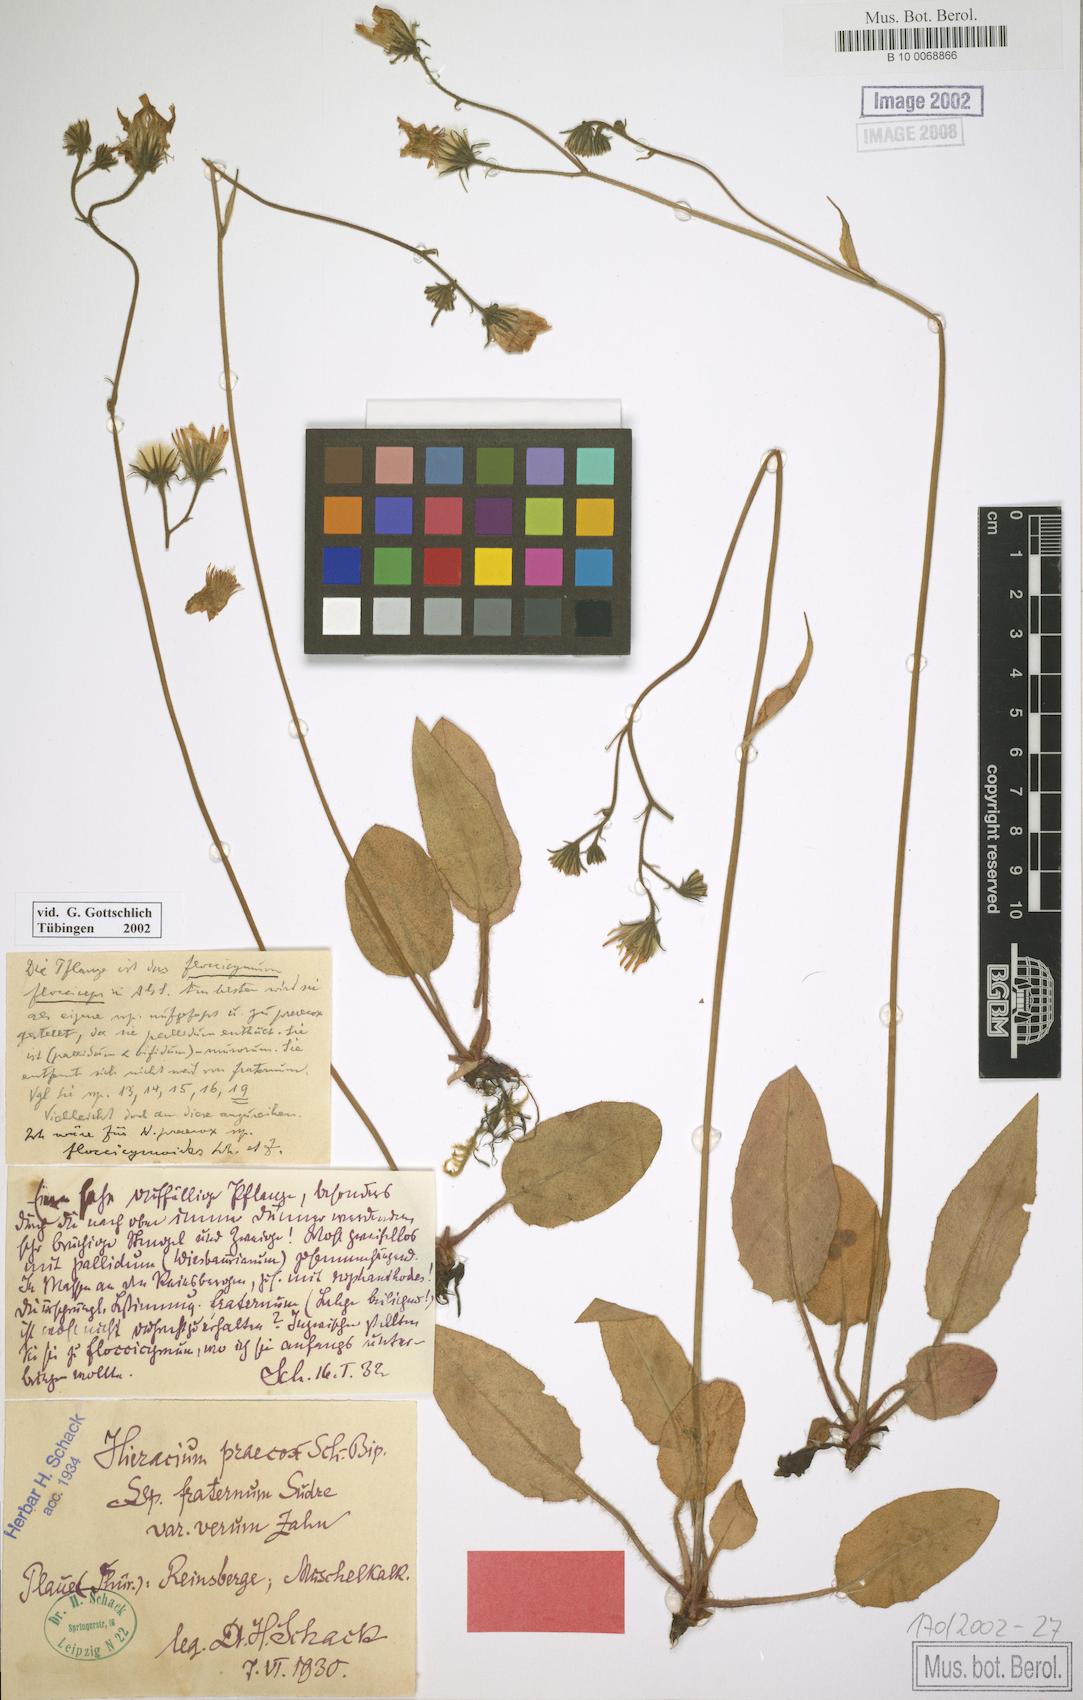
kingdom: Plantae
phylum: Tracheophyta
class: Magnoliopsida
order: Asterales
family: Asteraceae
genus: Hieracium
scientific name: Hieracium glaucinum
